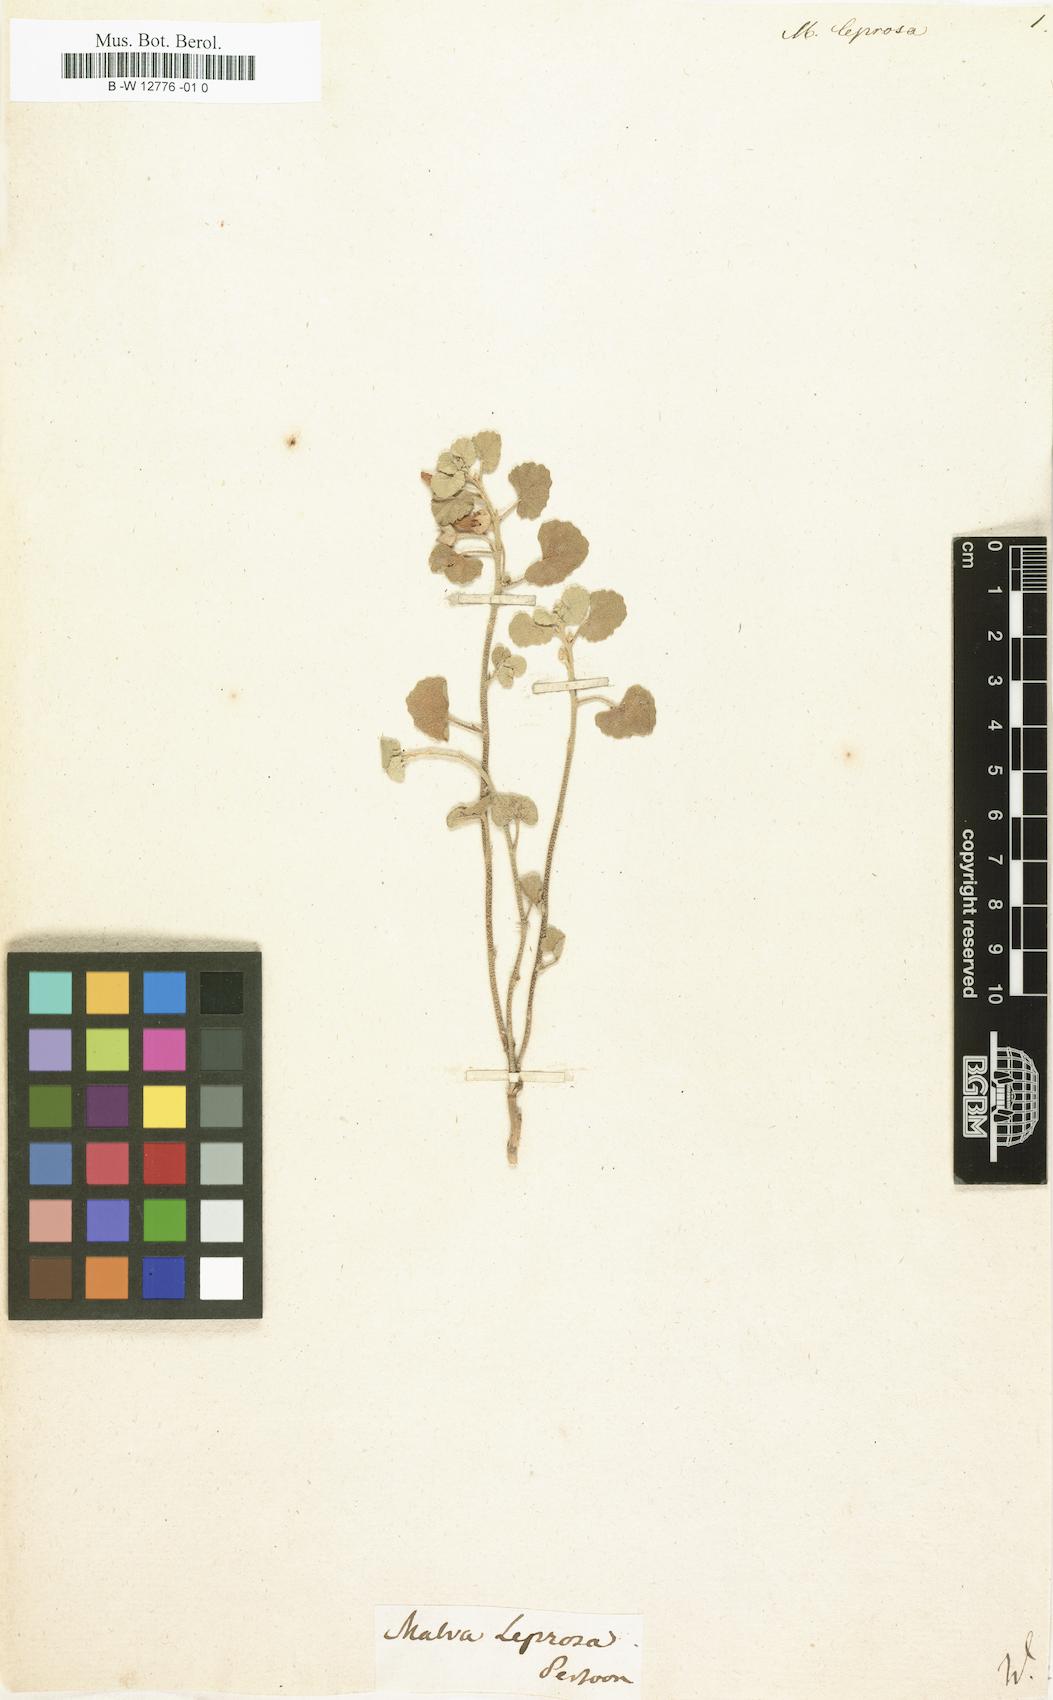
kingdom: Plantae
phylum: Tracheophyta
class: Magnoliopsida
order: Malvales
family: Malvaceae
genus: Malvella
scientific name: Malvella leprosa
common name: Alkali-mallow
